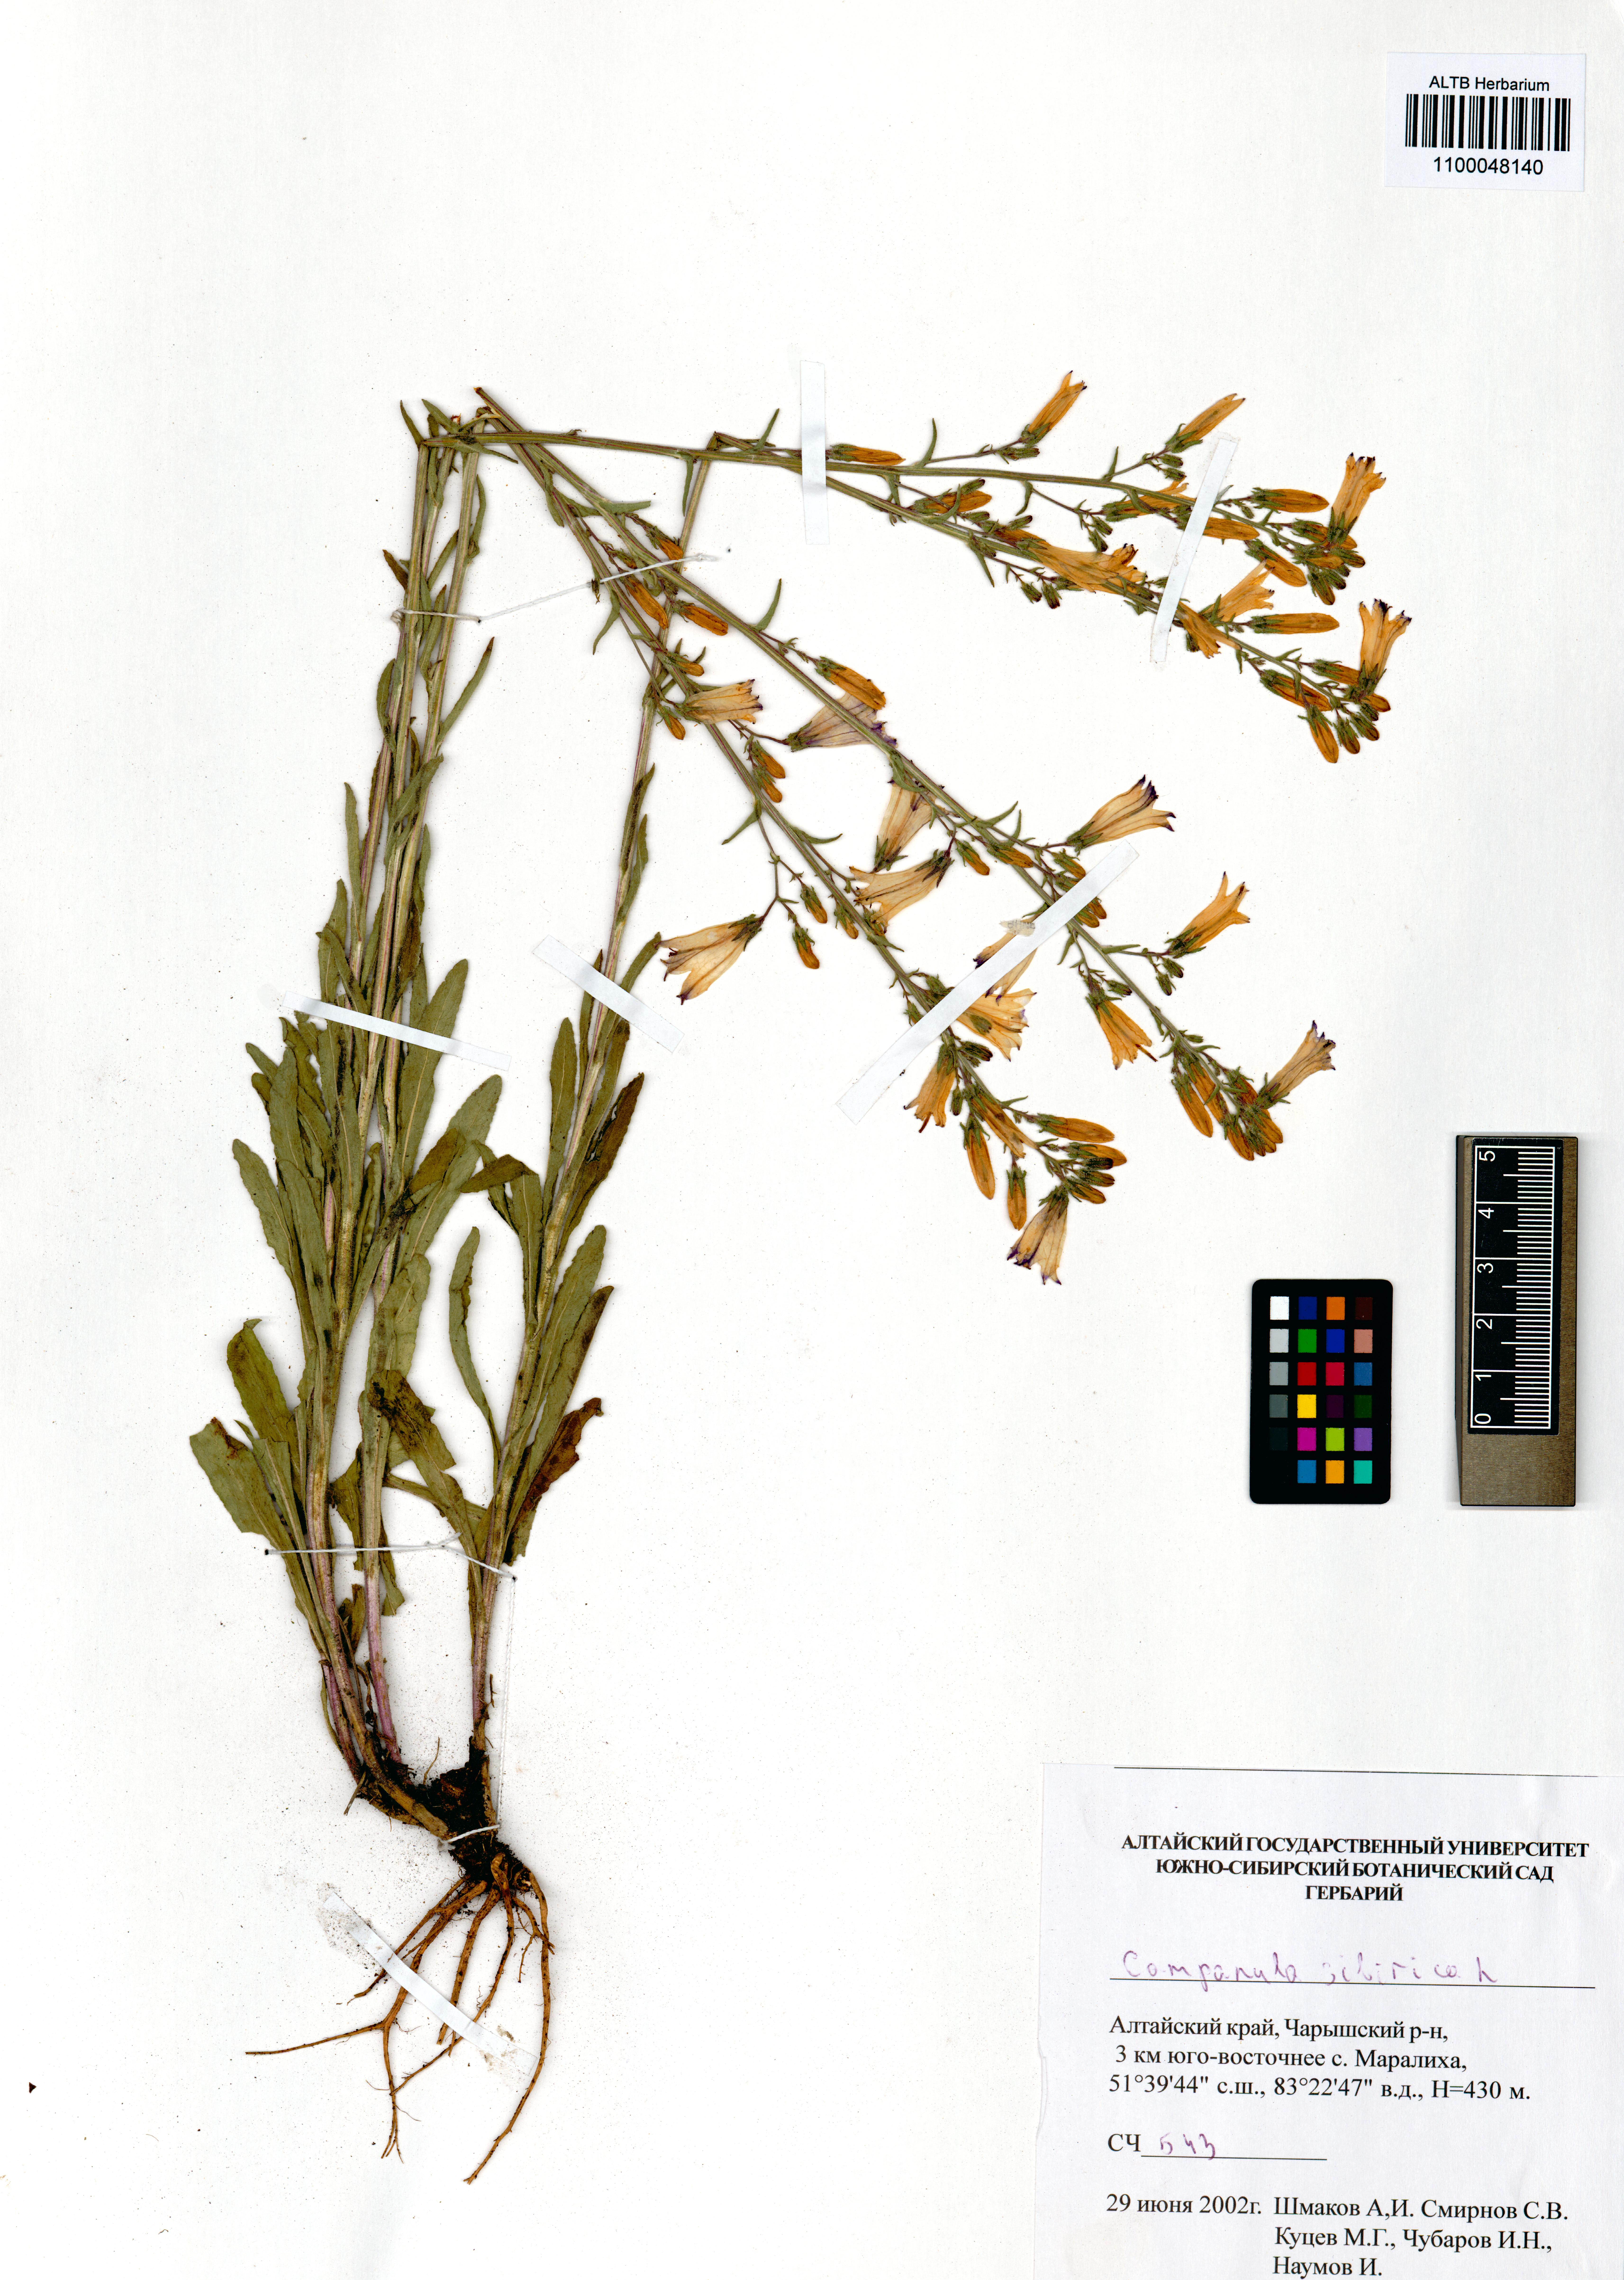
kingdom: Plantae
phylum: Tracheophyta
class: Magnoliopsida
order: Asterales
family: Campanulaceae
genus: Campanula
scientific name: Campanula sibirica
